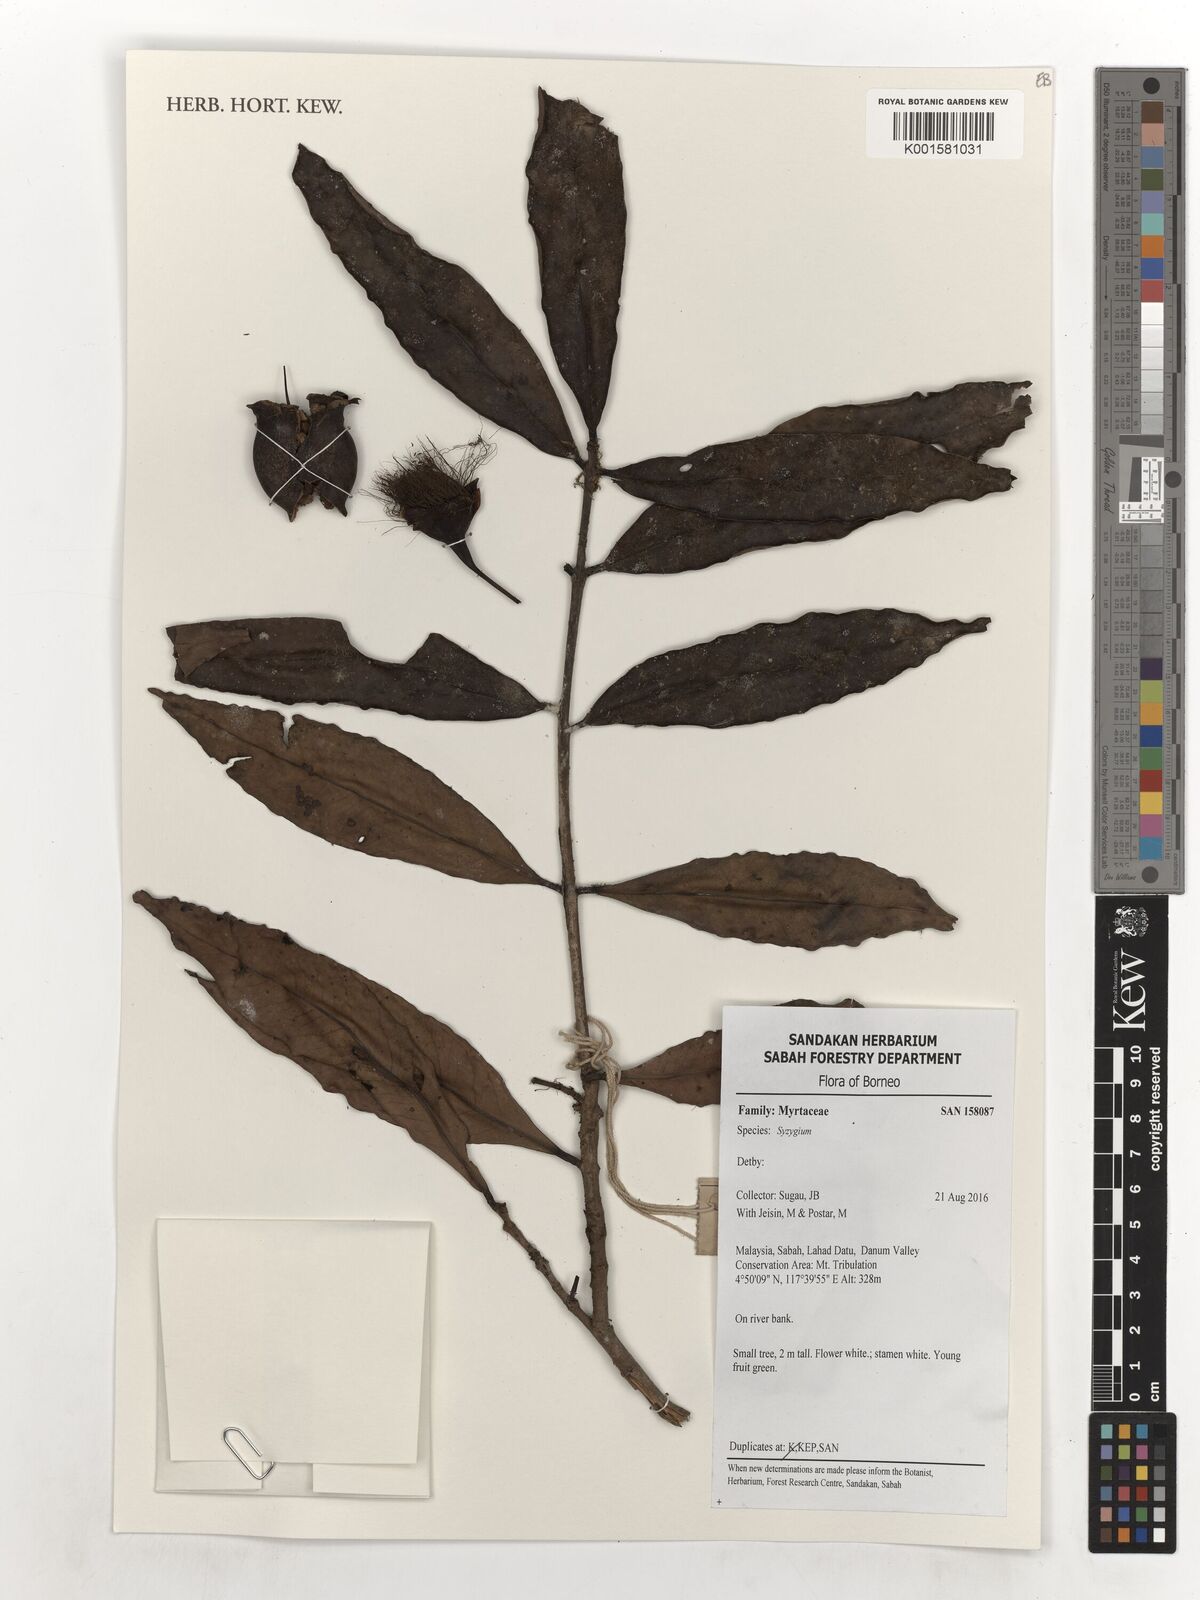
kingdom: Plantae
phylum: Tracheophyta
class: Magnoliopsida
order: Myrtales
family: Myrtaceae
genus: Syzygium
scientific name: Syzygium
